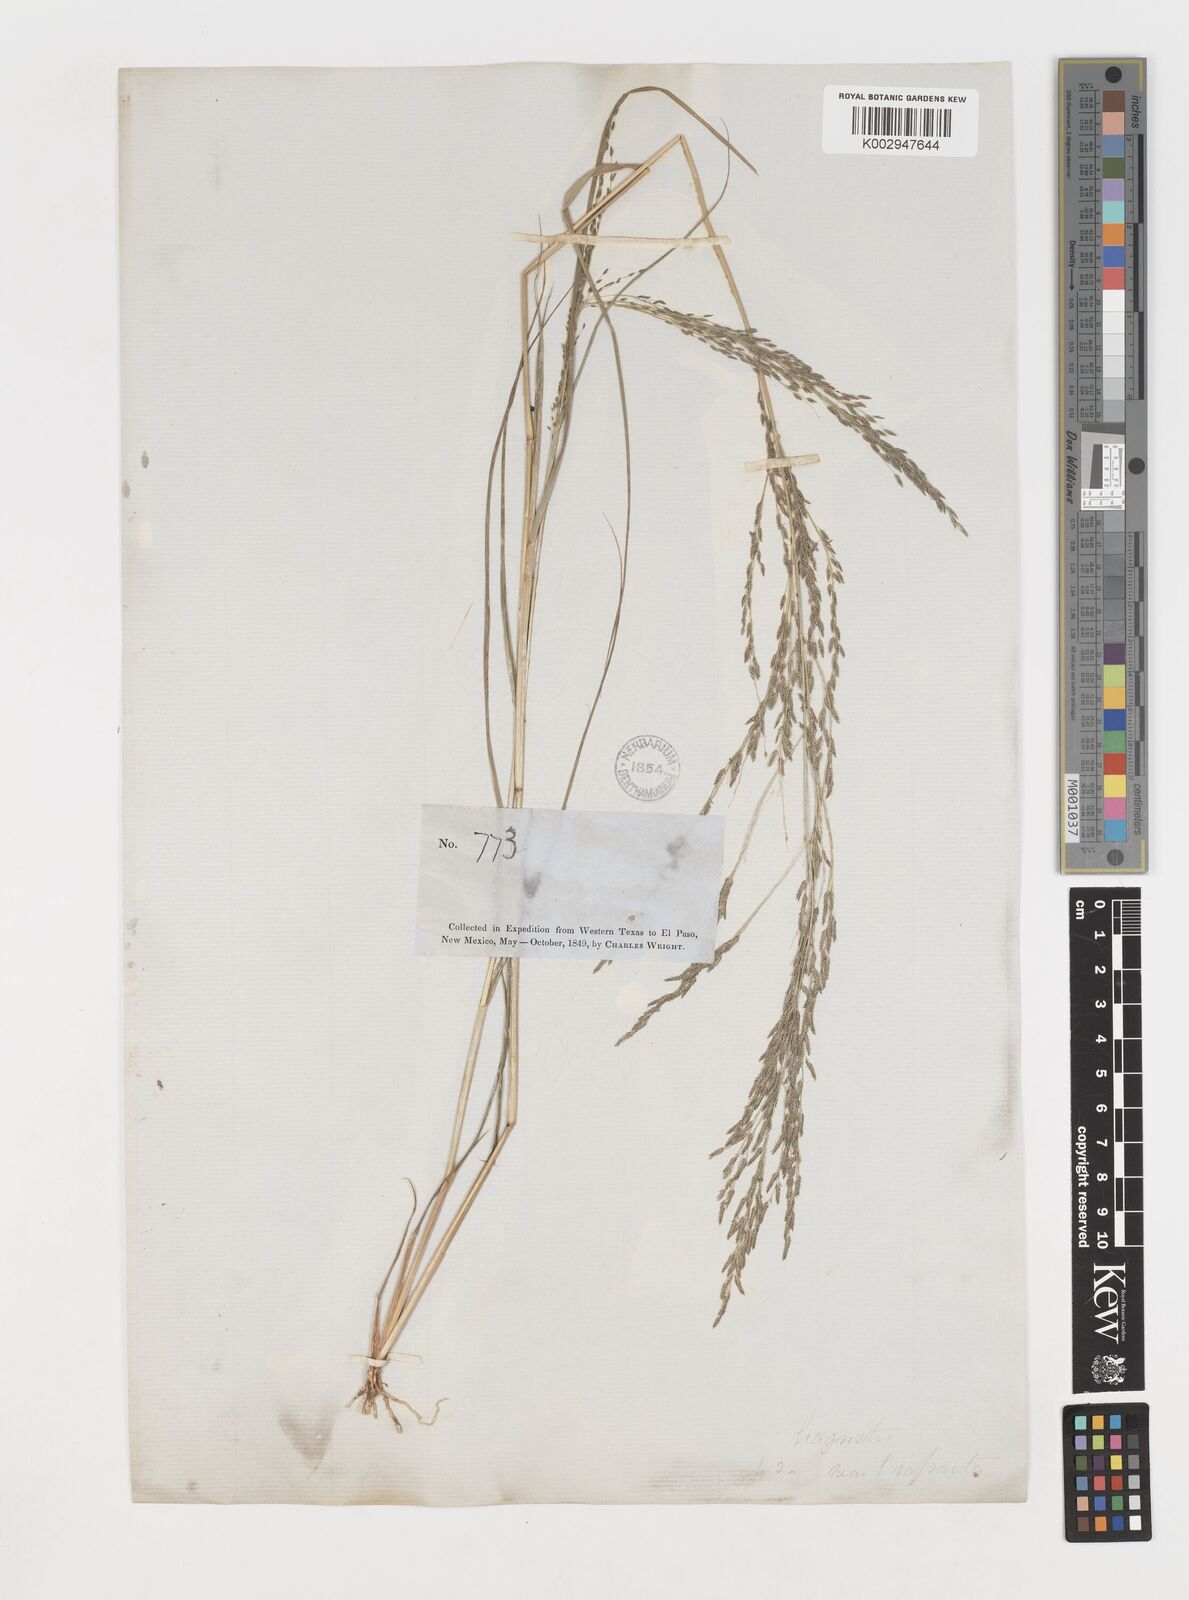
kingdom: Plantae
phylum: Tracheophyta
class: Liliopsida
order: Poales
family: Poaceae
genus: Eragrostis
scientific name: Eragrostis mexicana
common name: Mexican love grass
